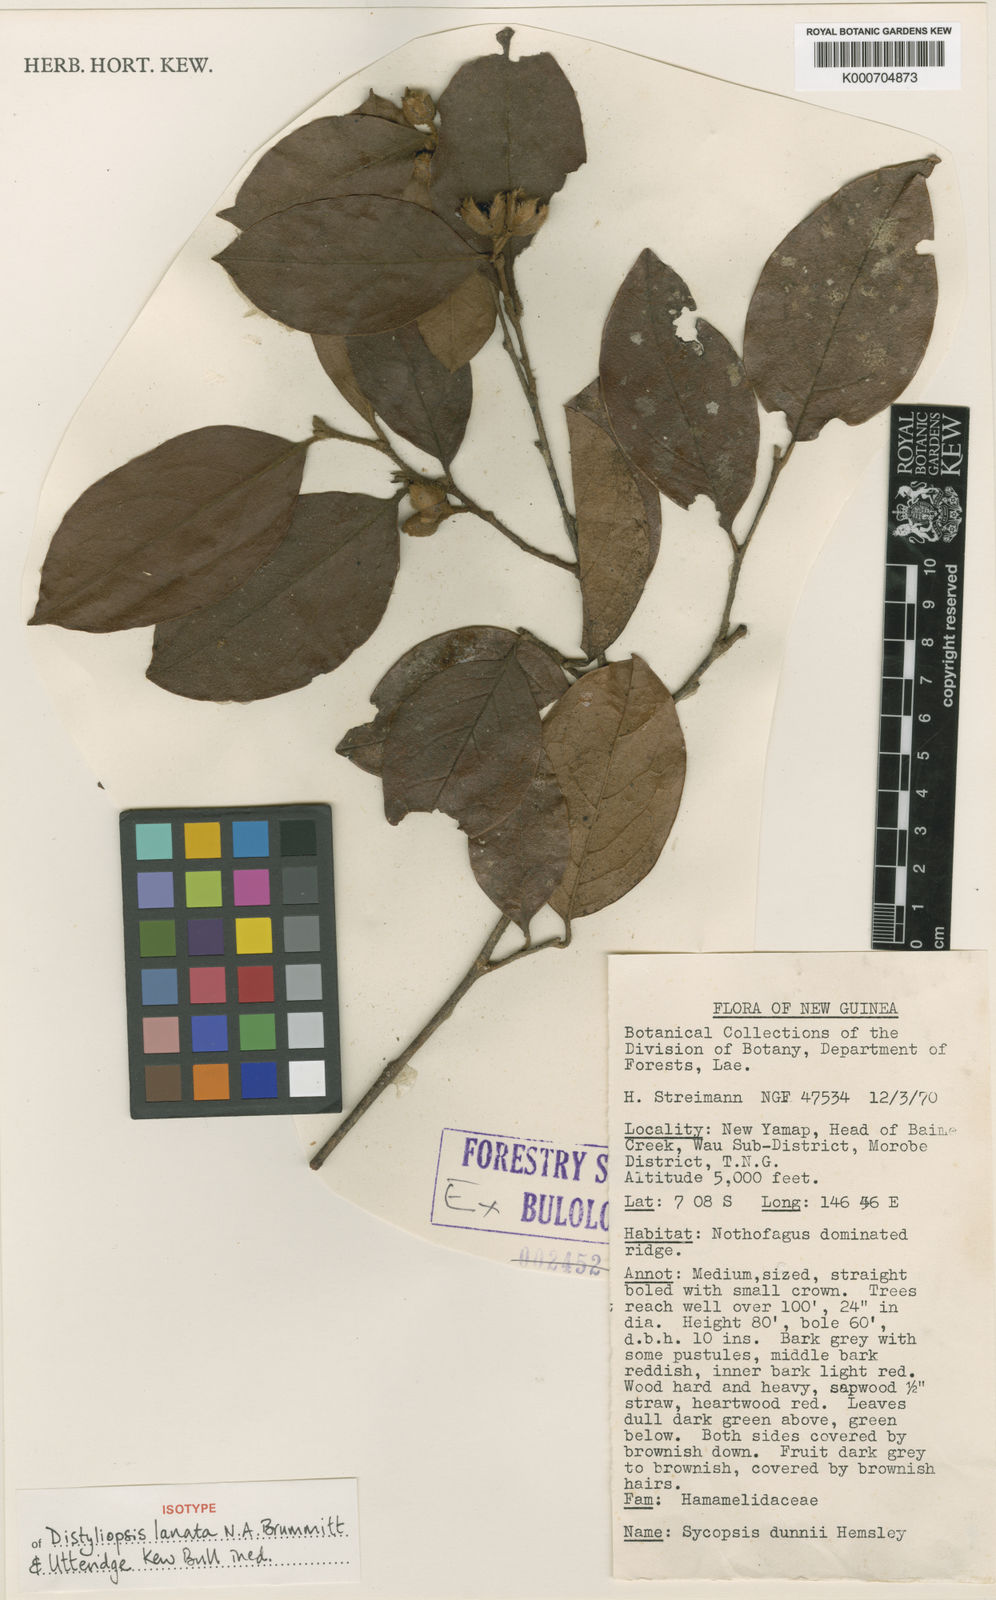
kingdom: Plantae
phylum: Tracheophyta
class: Magnoliopsida
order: Saxifragales
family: Hamamelidaceae
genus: Distyliopsis
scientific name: Distyliopsis lanata
